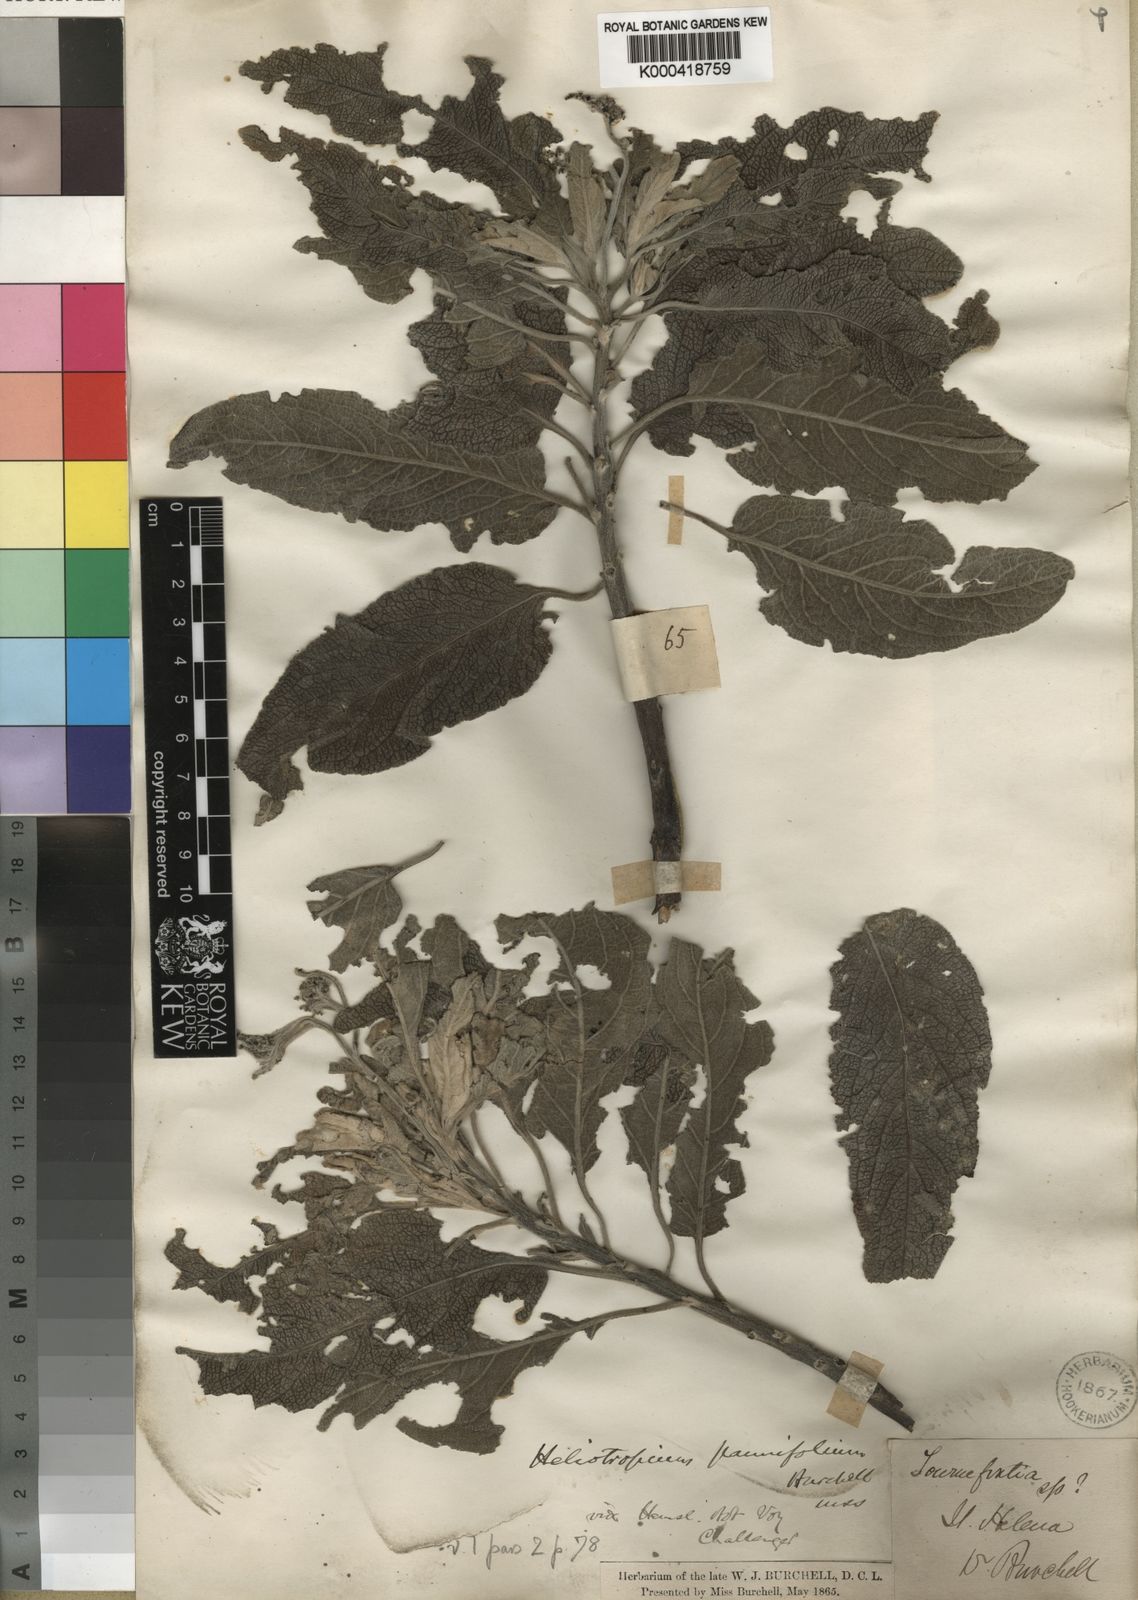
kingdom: Plantae
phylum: Tracheophyta
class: Magnoliopsida
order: Boraginales
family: Heliotropiaceae
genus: Heliotropium
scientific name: Heliotropium
